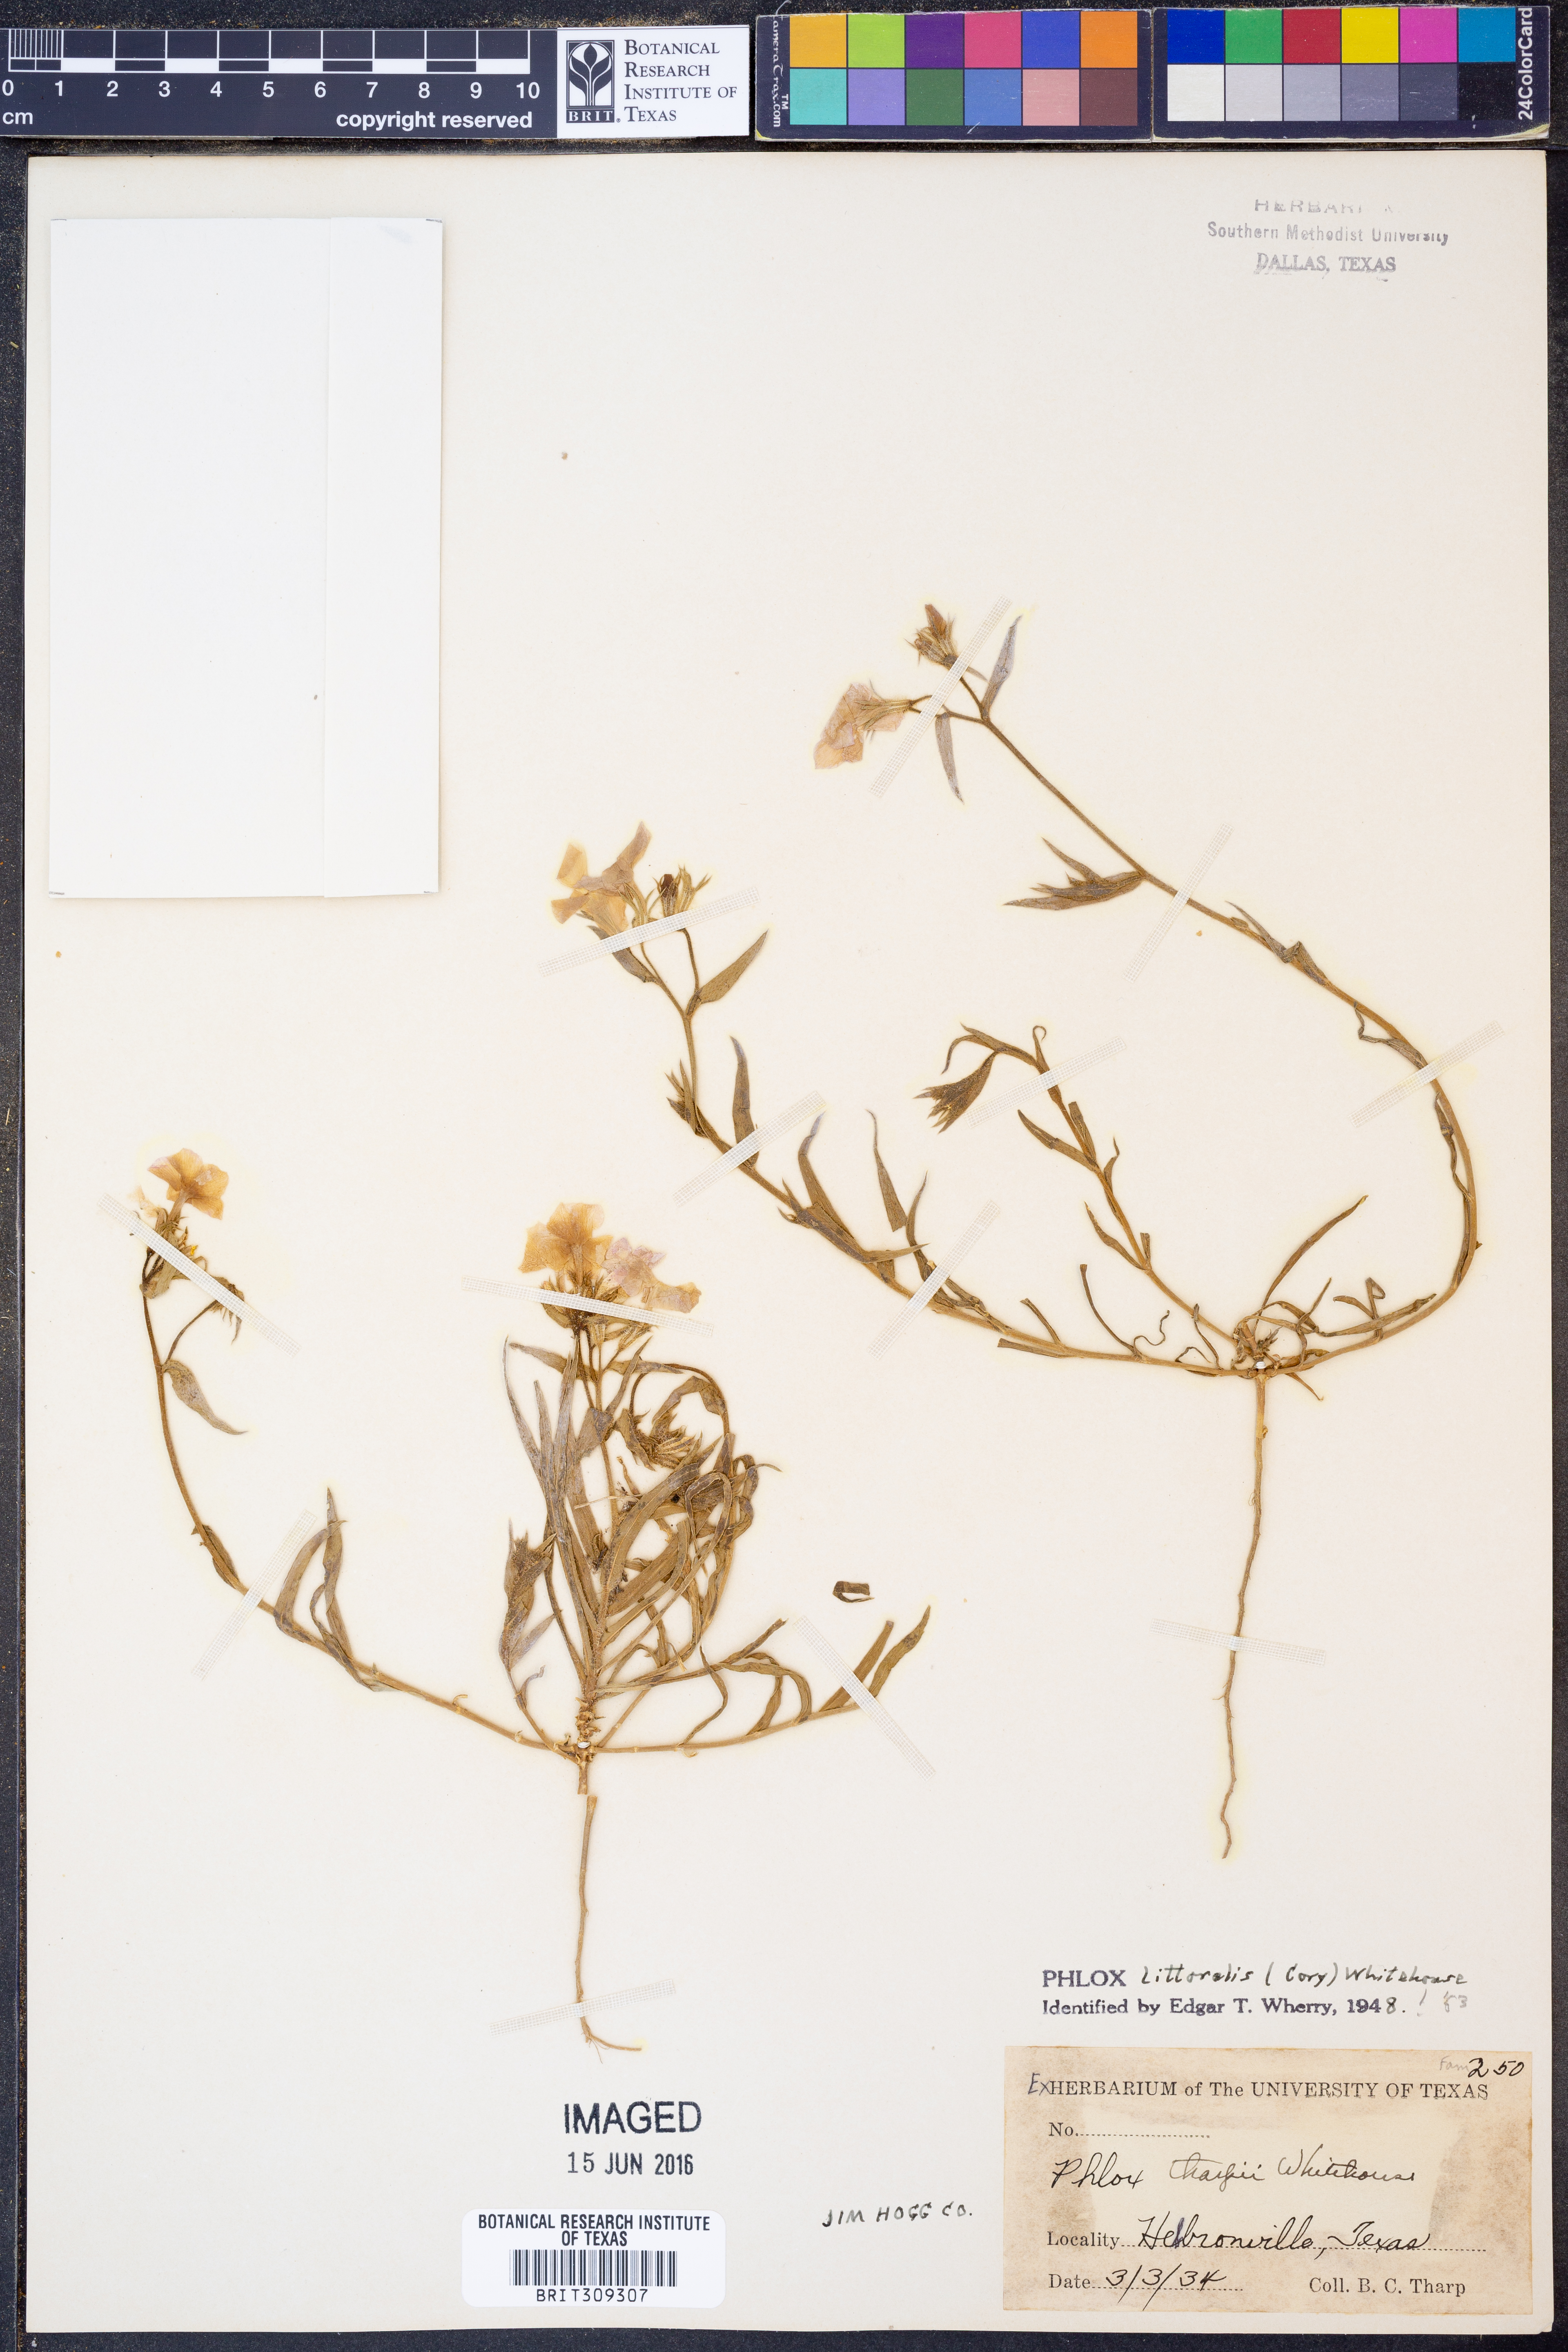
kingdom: Plantae
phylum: Tracheophyta
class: Magnoliopsida
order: Ericales
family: Polemoniaceae
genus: Phlox
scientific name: Phlox glabriflora
